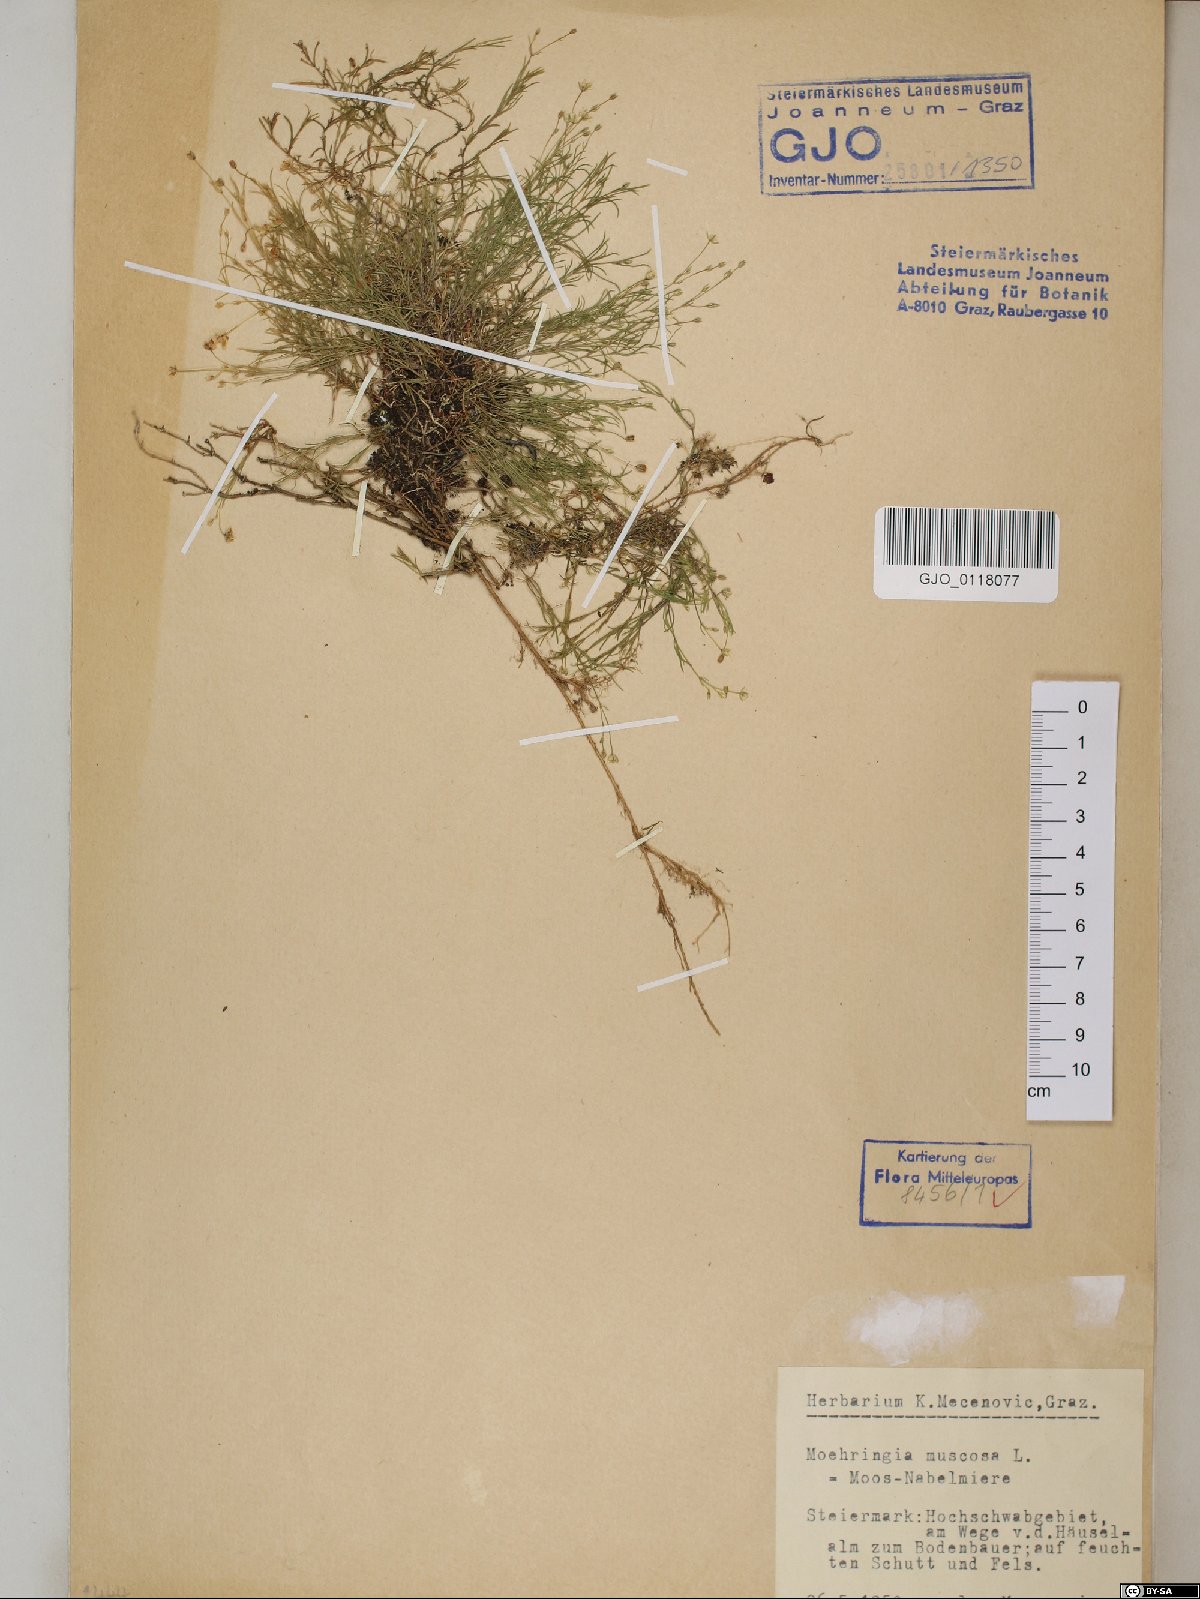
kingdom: Plantae
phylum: Tracheophyta
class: Magnoliopsida
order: Caryophyllales
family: Caryophyllaceae
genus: Moehringia
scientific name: Moehringia muscosa
